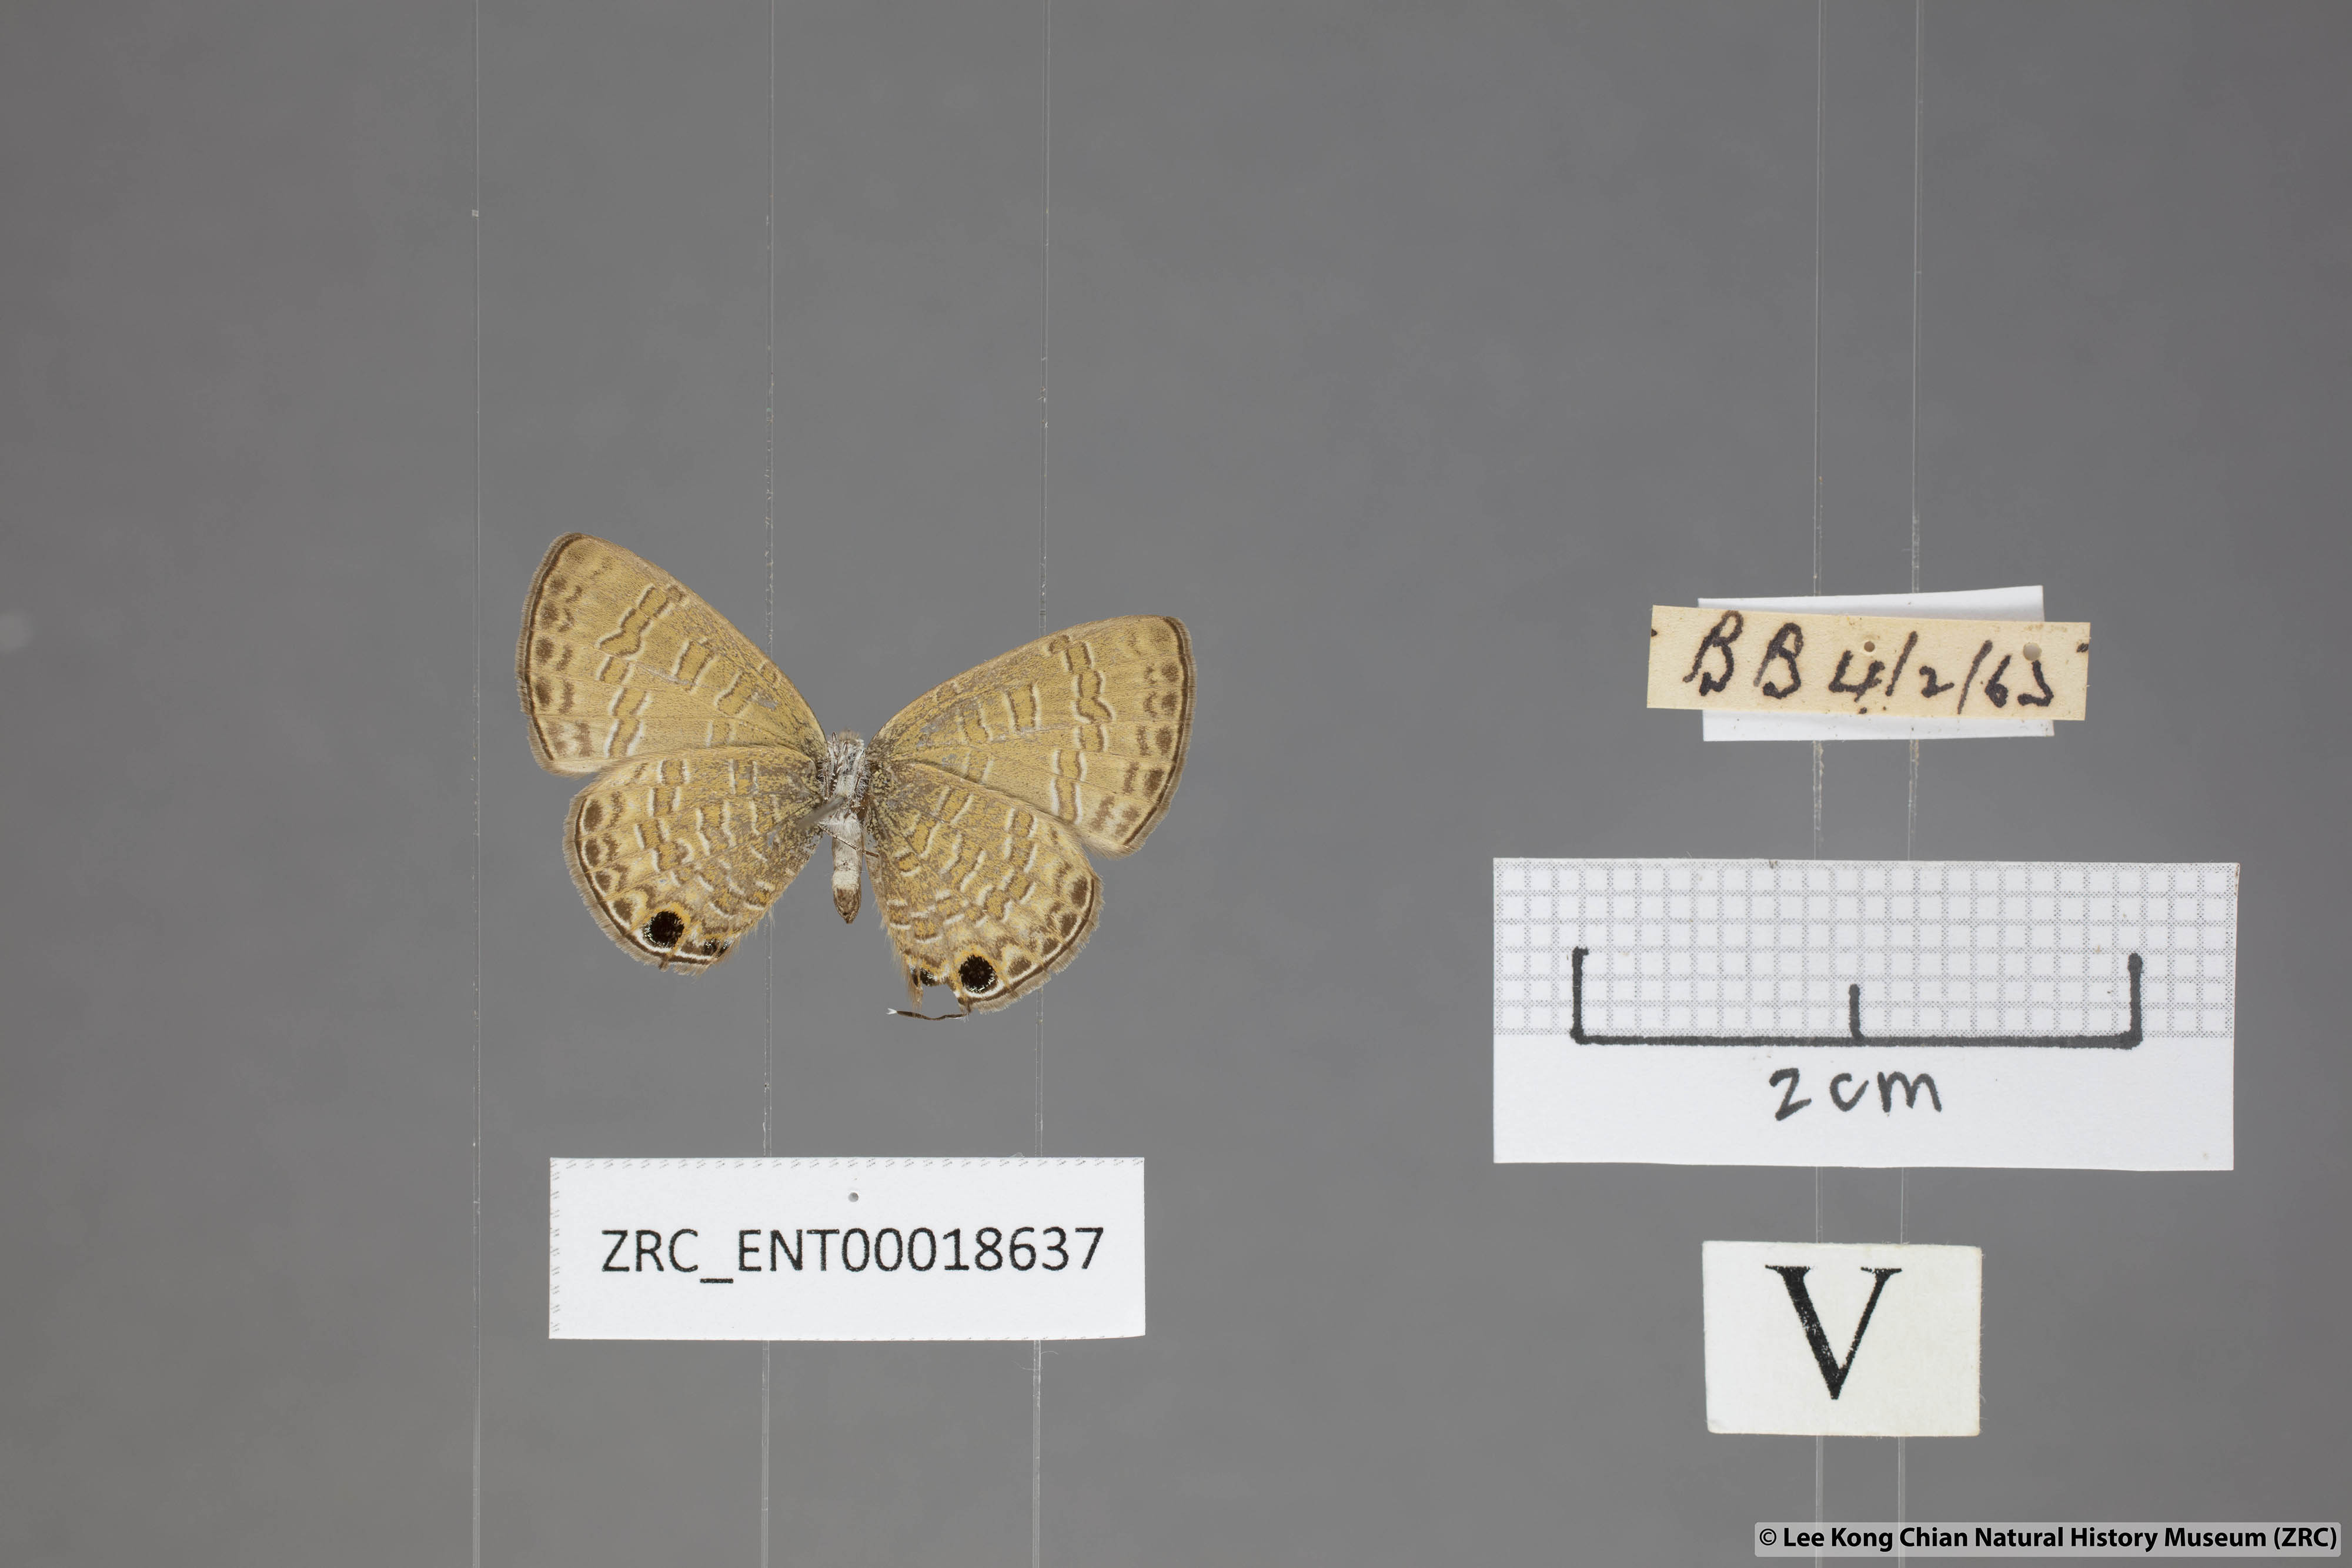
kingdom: Animalia
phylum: Arthropoda
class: Insecta
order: Lepidoptera
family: Lycaenidae
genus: Prosotas
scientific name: Prosotas nora
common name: Common line blue
